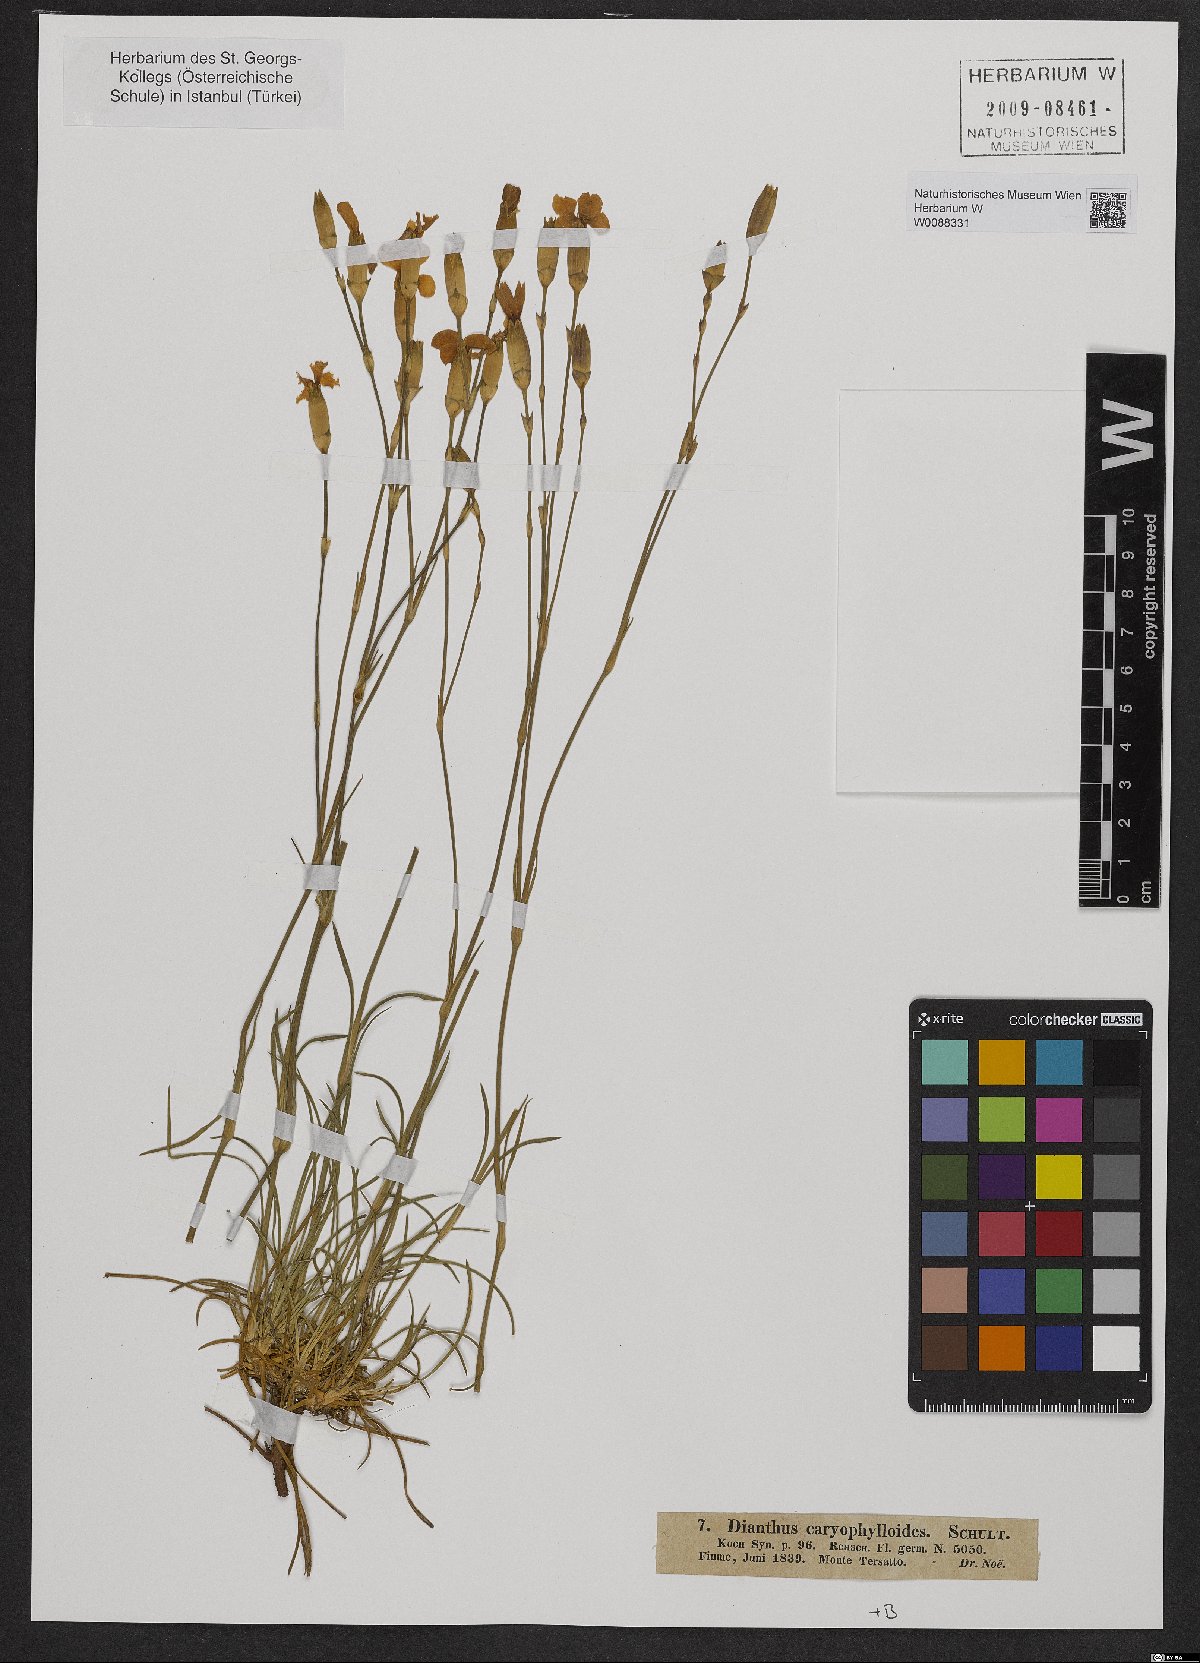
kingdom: Plantae
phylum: Tracheophyta
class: Magnoliopsida
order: Caryophyllales
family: Caryophyllaceae
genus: Dianthus
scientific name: Dianthus sylvestris
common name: Wood pink
